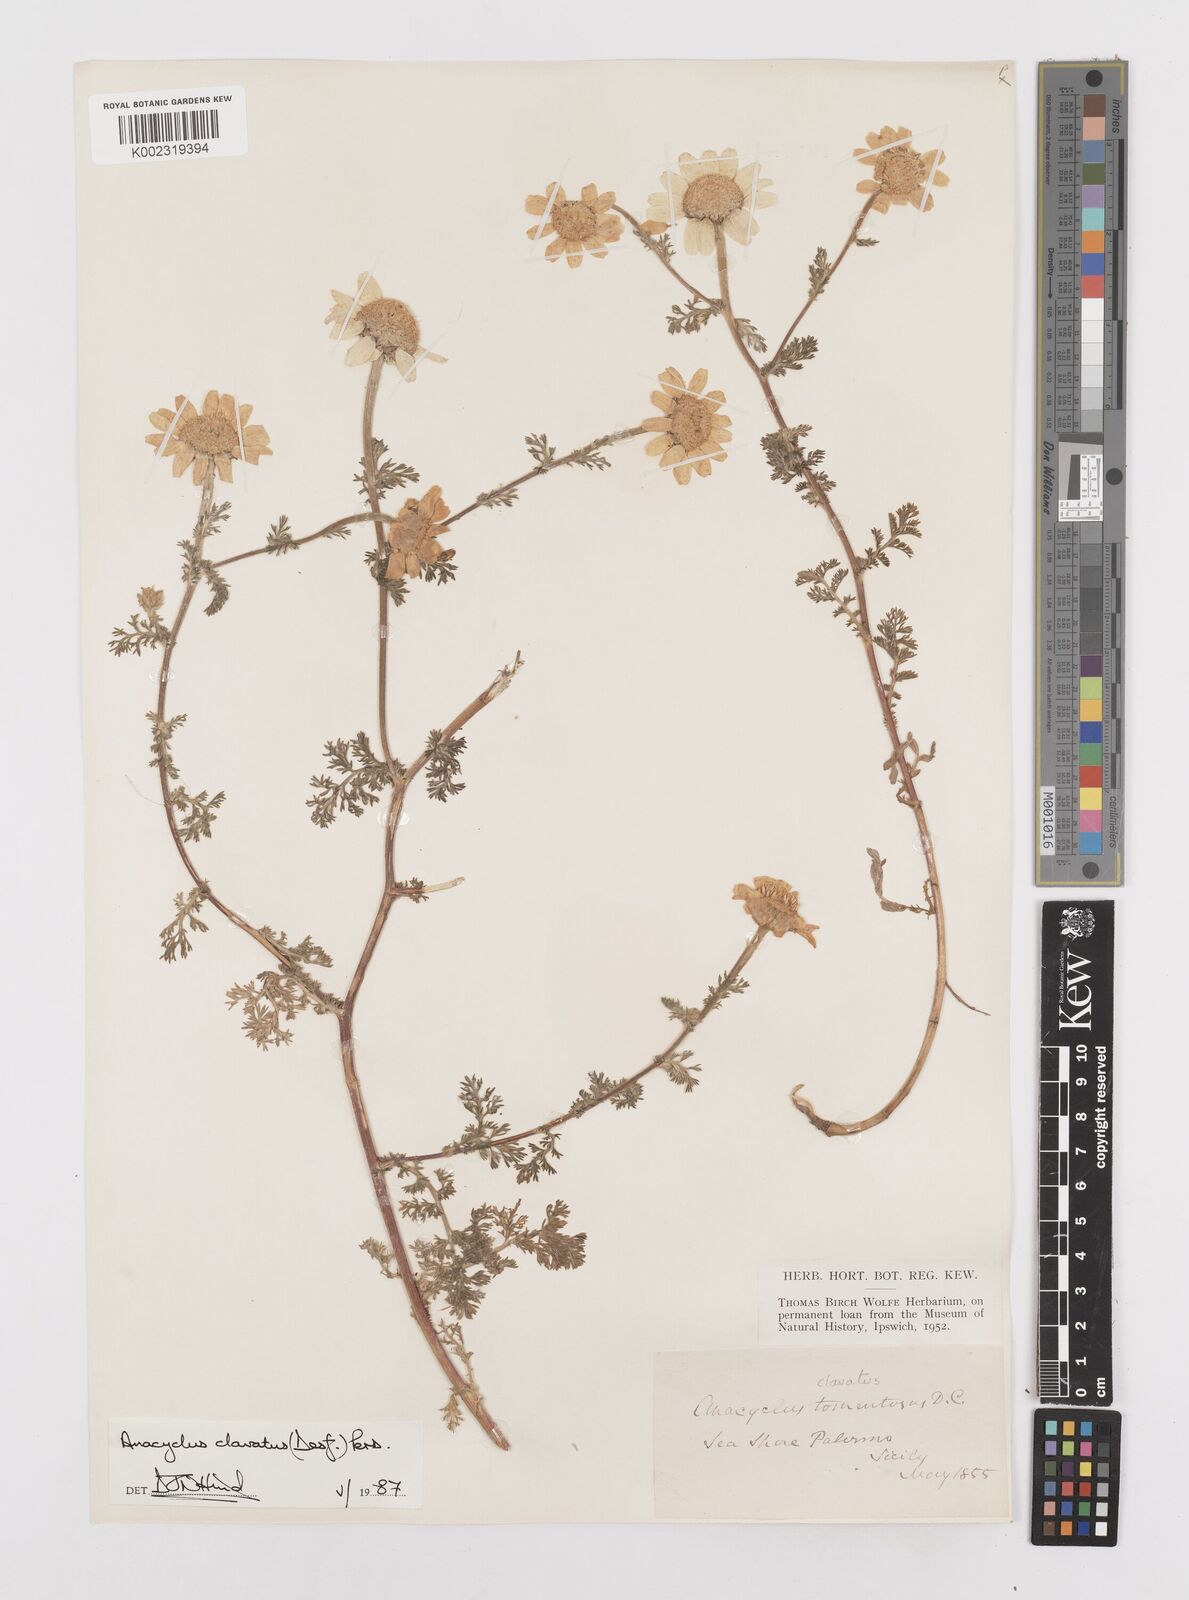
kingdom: Plantae
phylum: Tracheophyta
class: Magnoliopsida
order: Asterales
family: Asteraceae
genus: Anacyclus
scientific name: Anacyclus clavatus
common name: Whitebuttons
